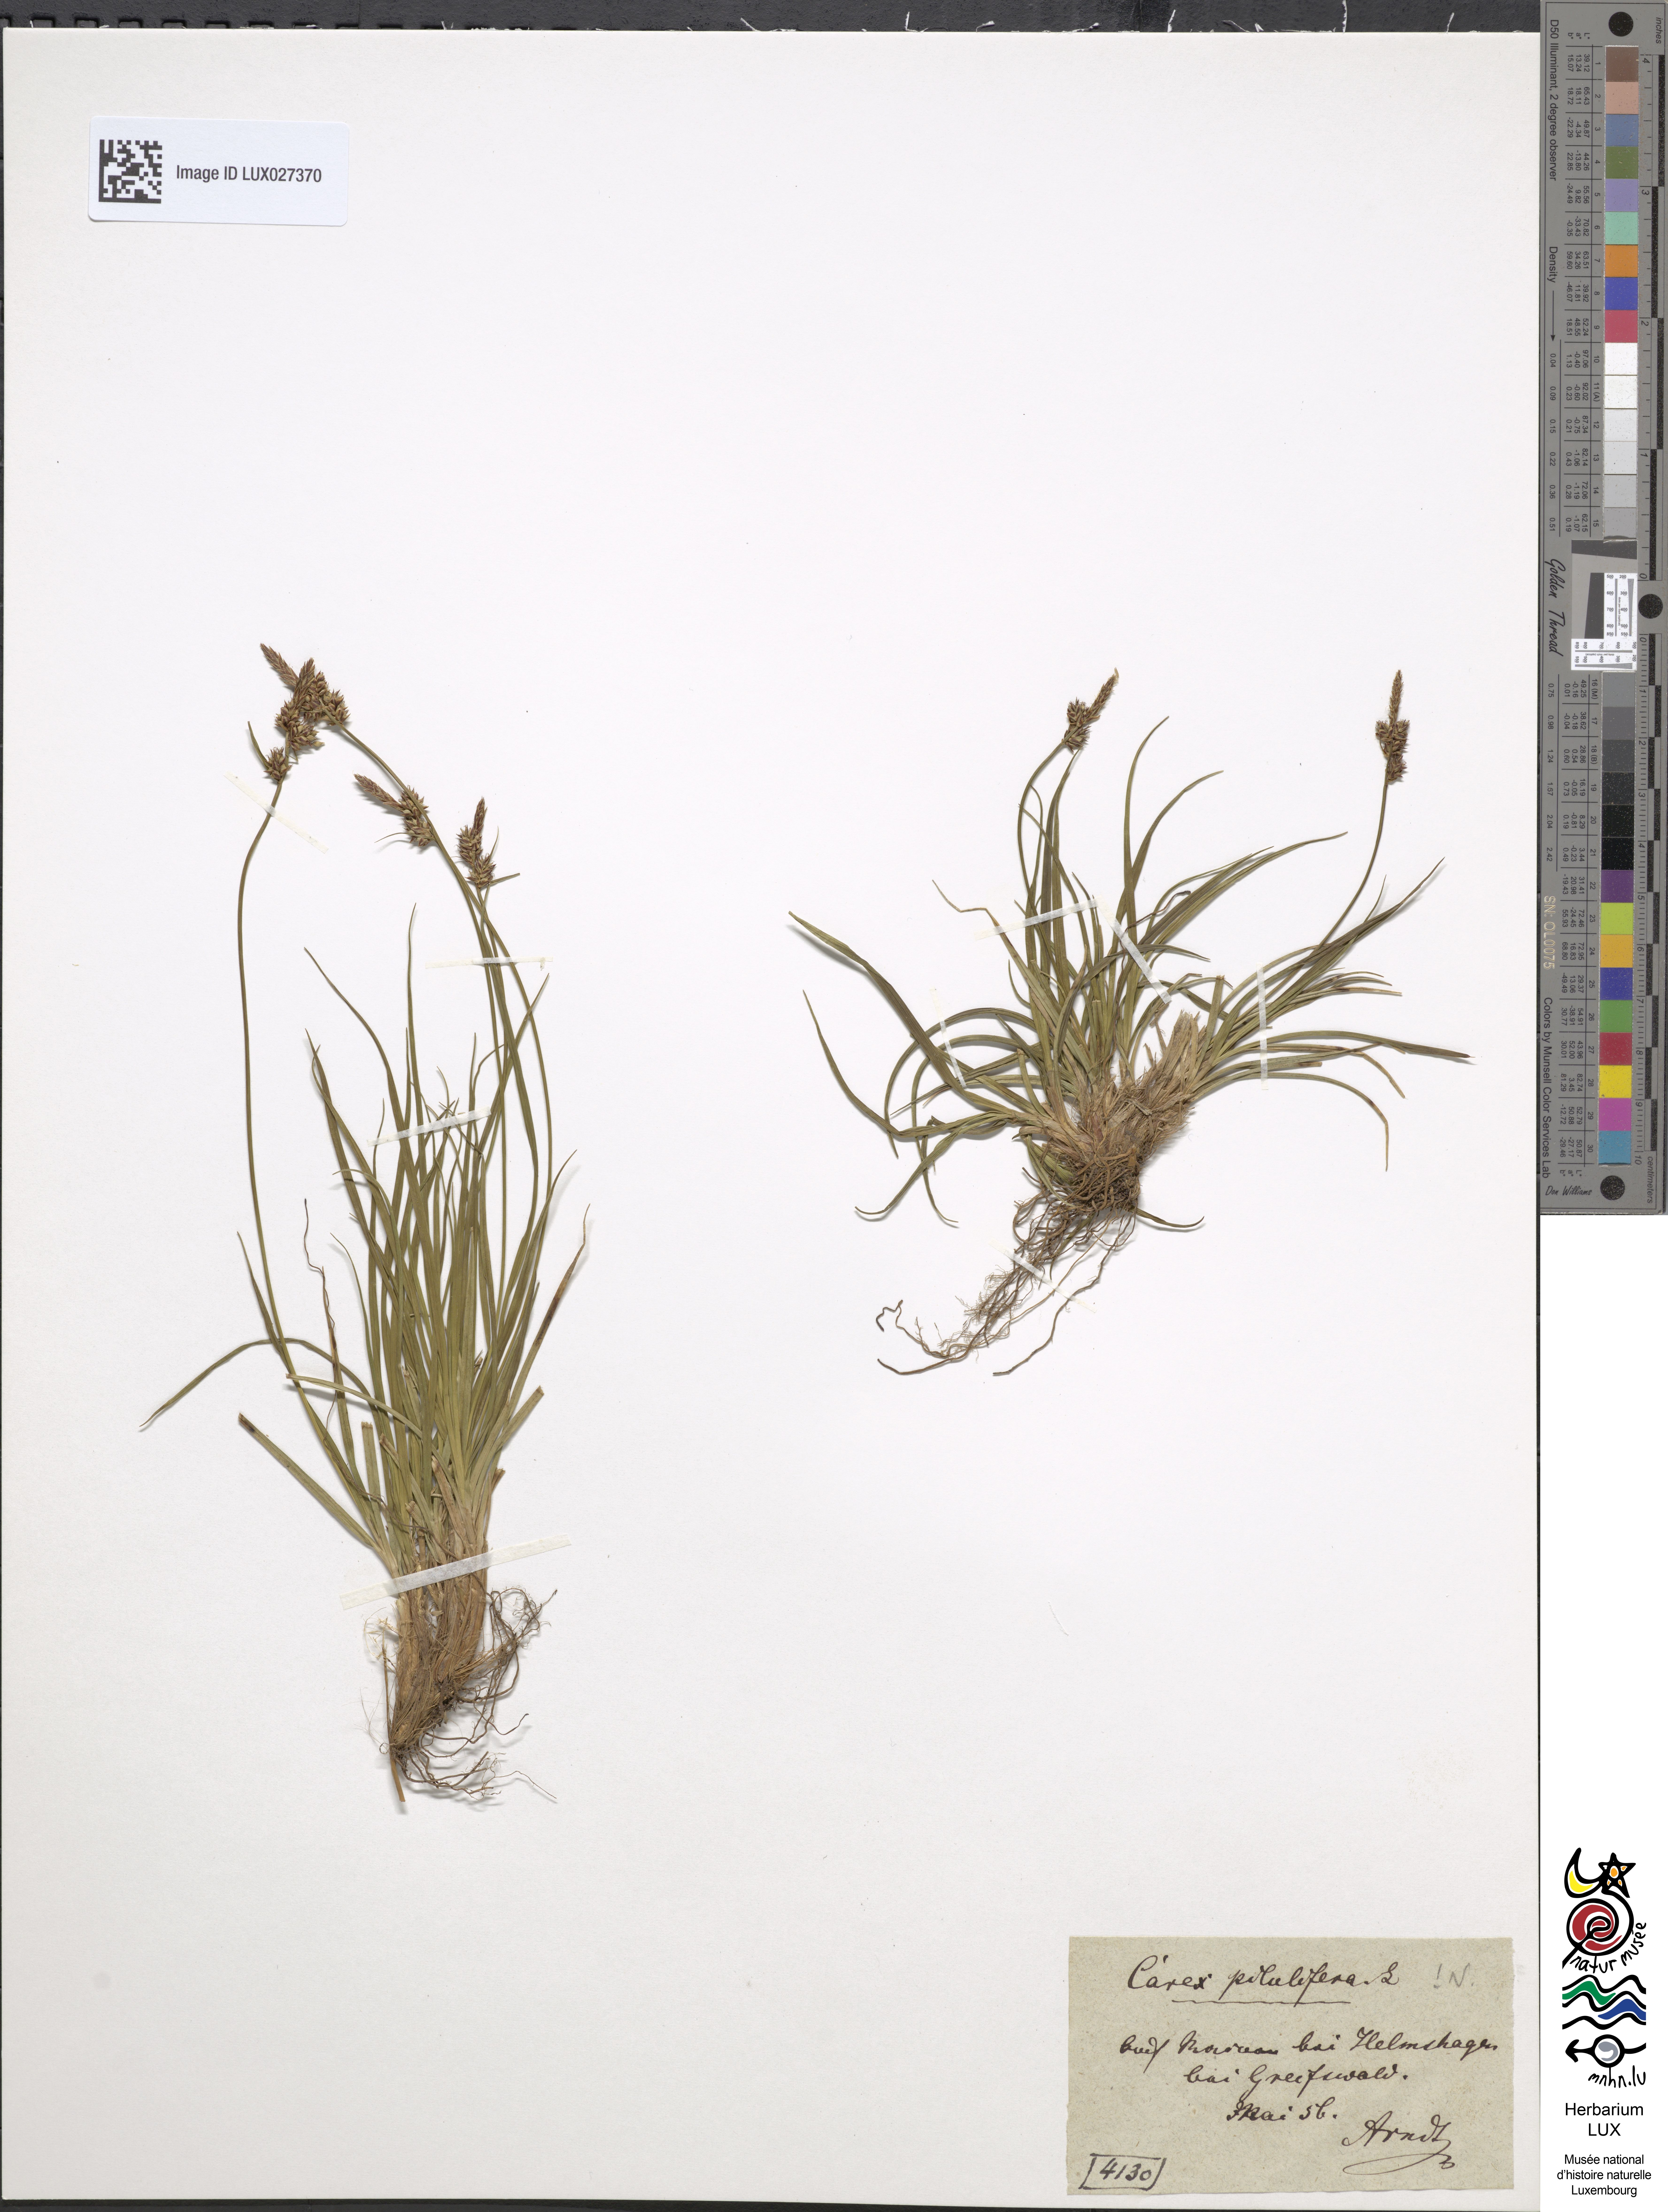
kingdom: Plantae
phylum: Tracheophyta
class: Liliopsida
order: Poales
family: Cyperaceae
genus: Carex
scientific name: Carex pilulifera
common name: Pill sedge
